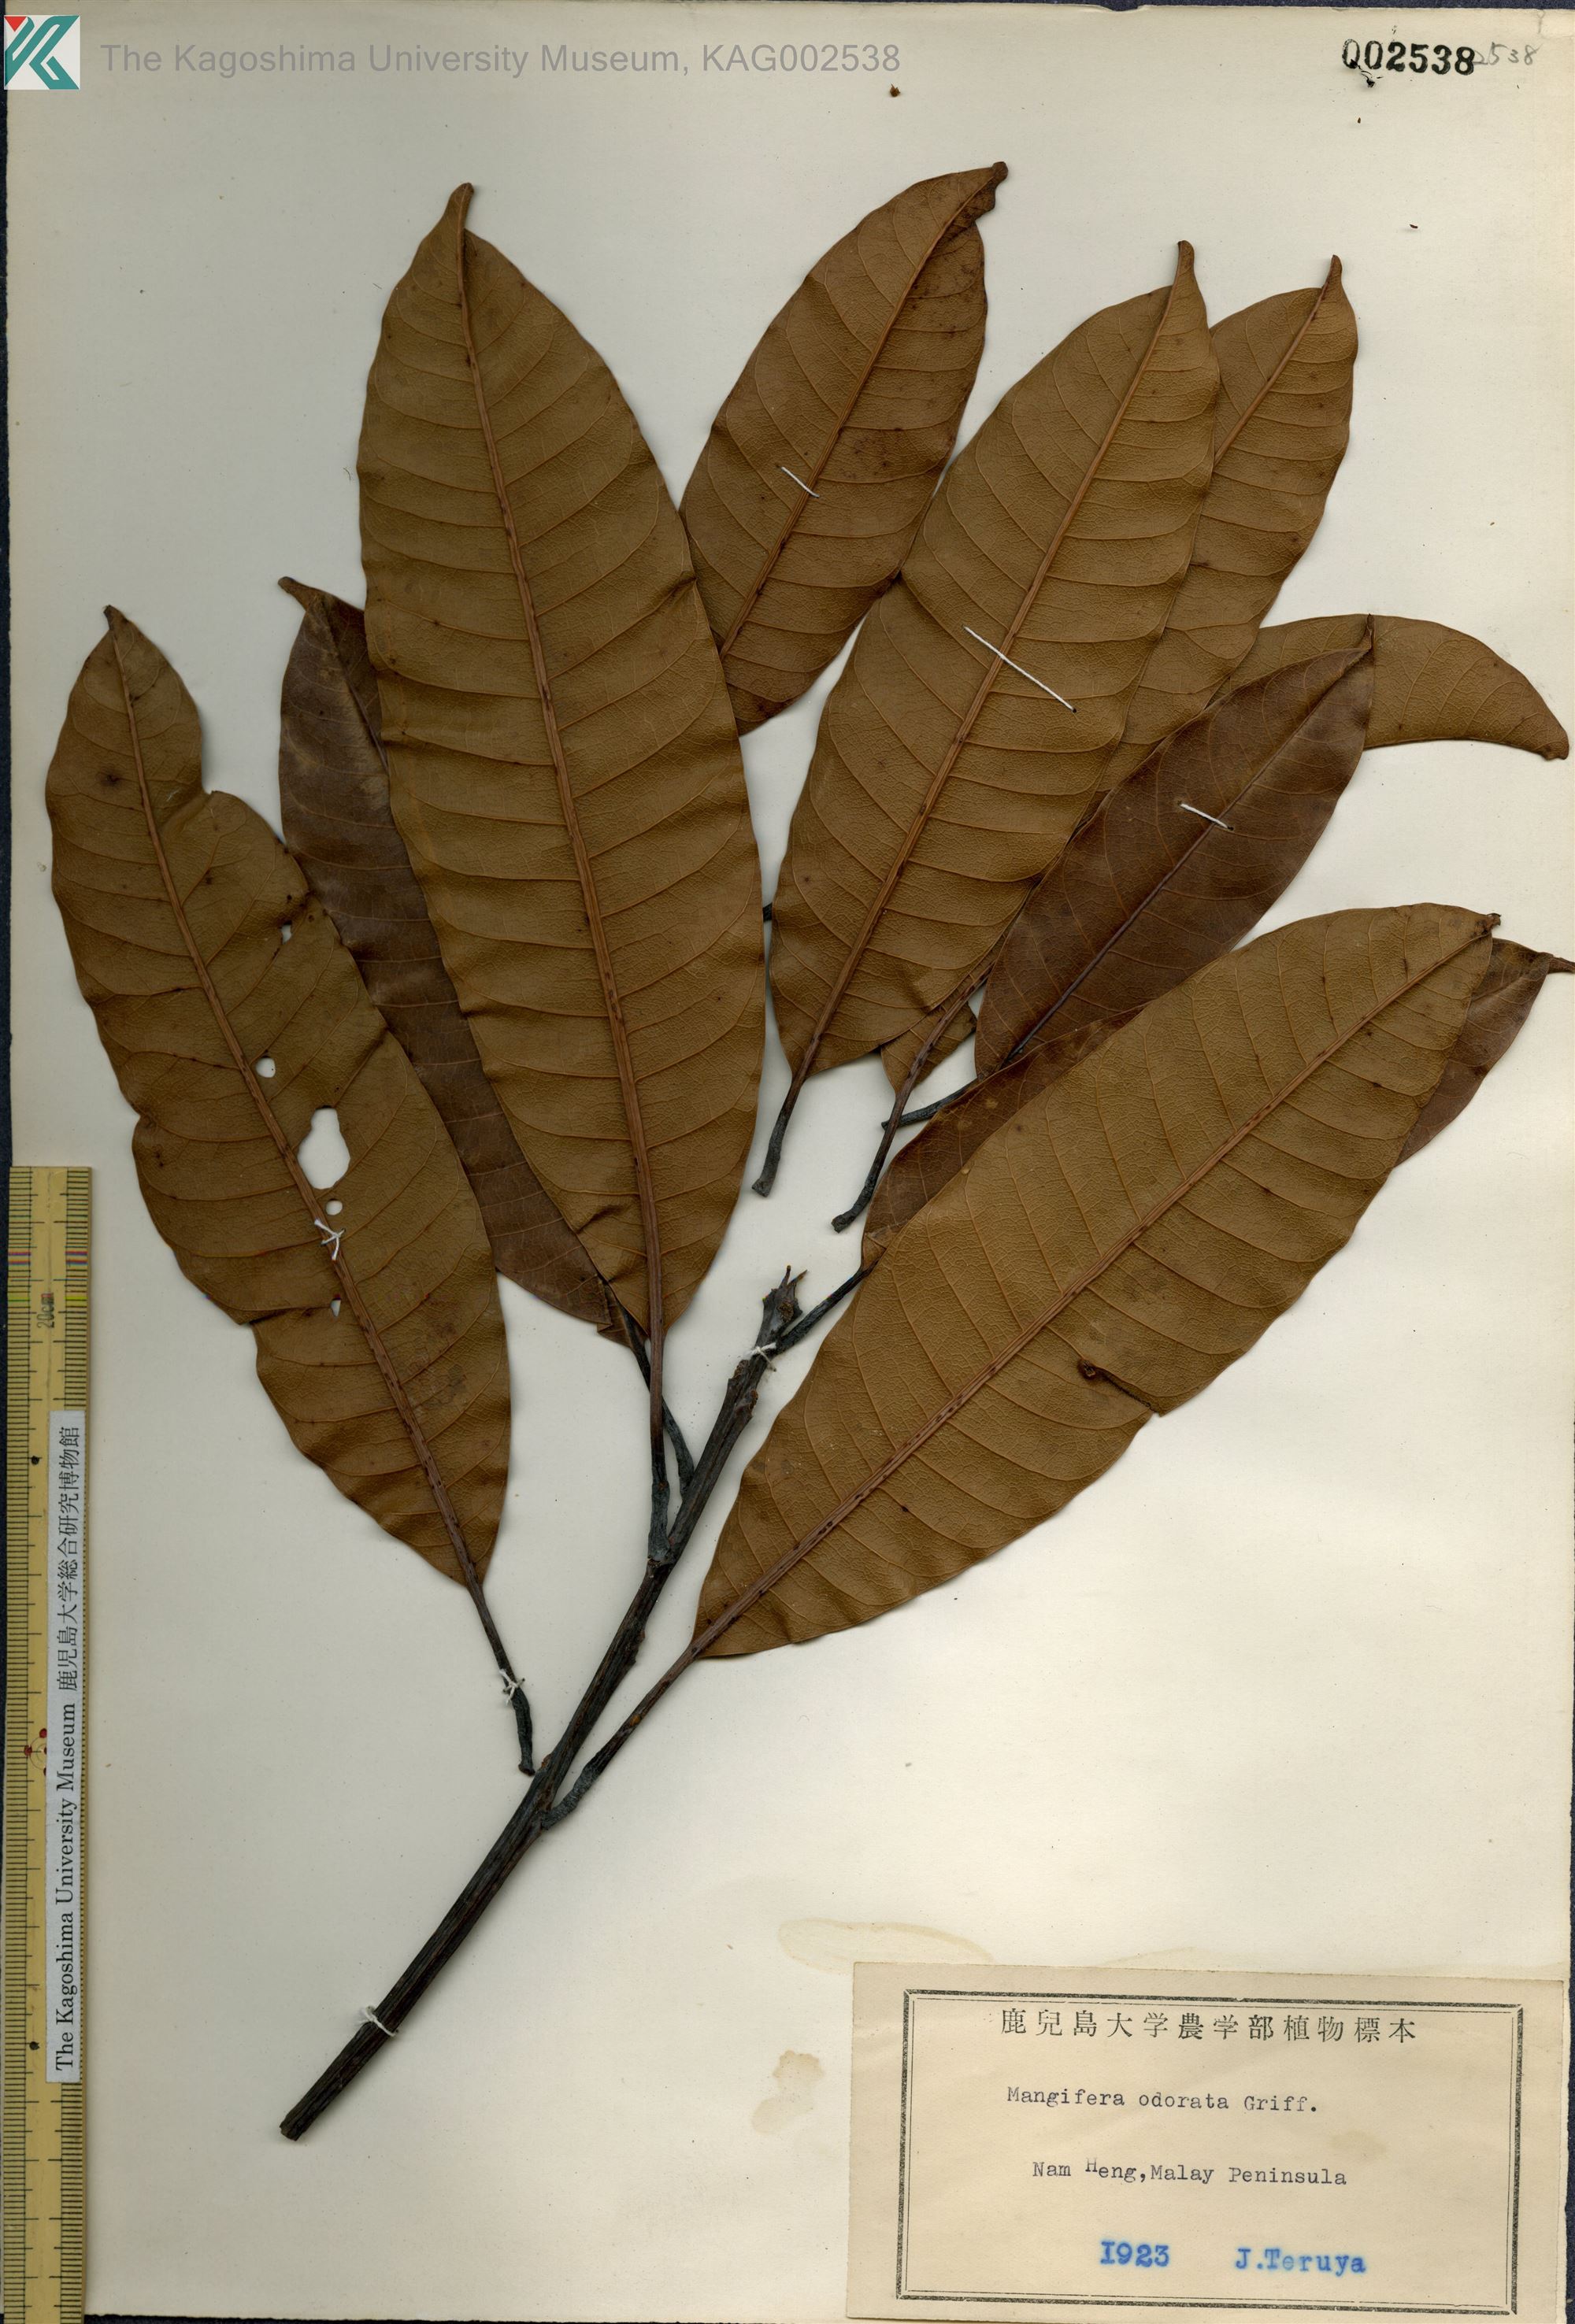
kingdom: Plantae
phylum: Tracheophyta
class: Magnoliopsida
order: Sapindales
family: Anacardiaceae
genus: Mangifera
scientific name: Mangifera odorata
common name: Saipan mango
